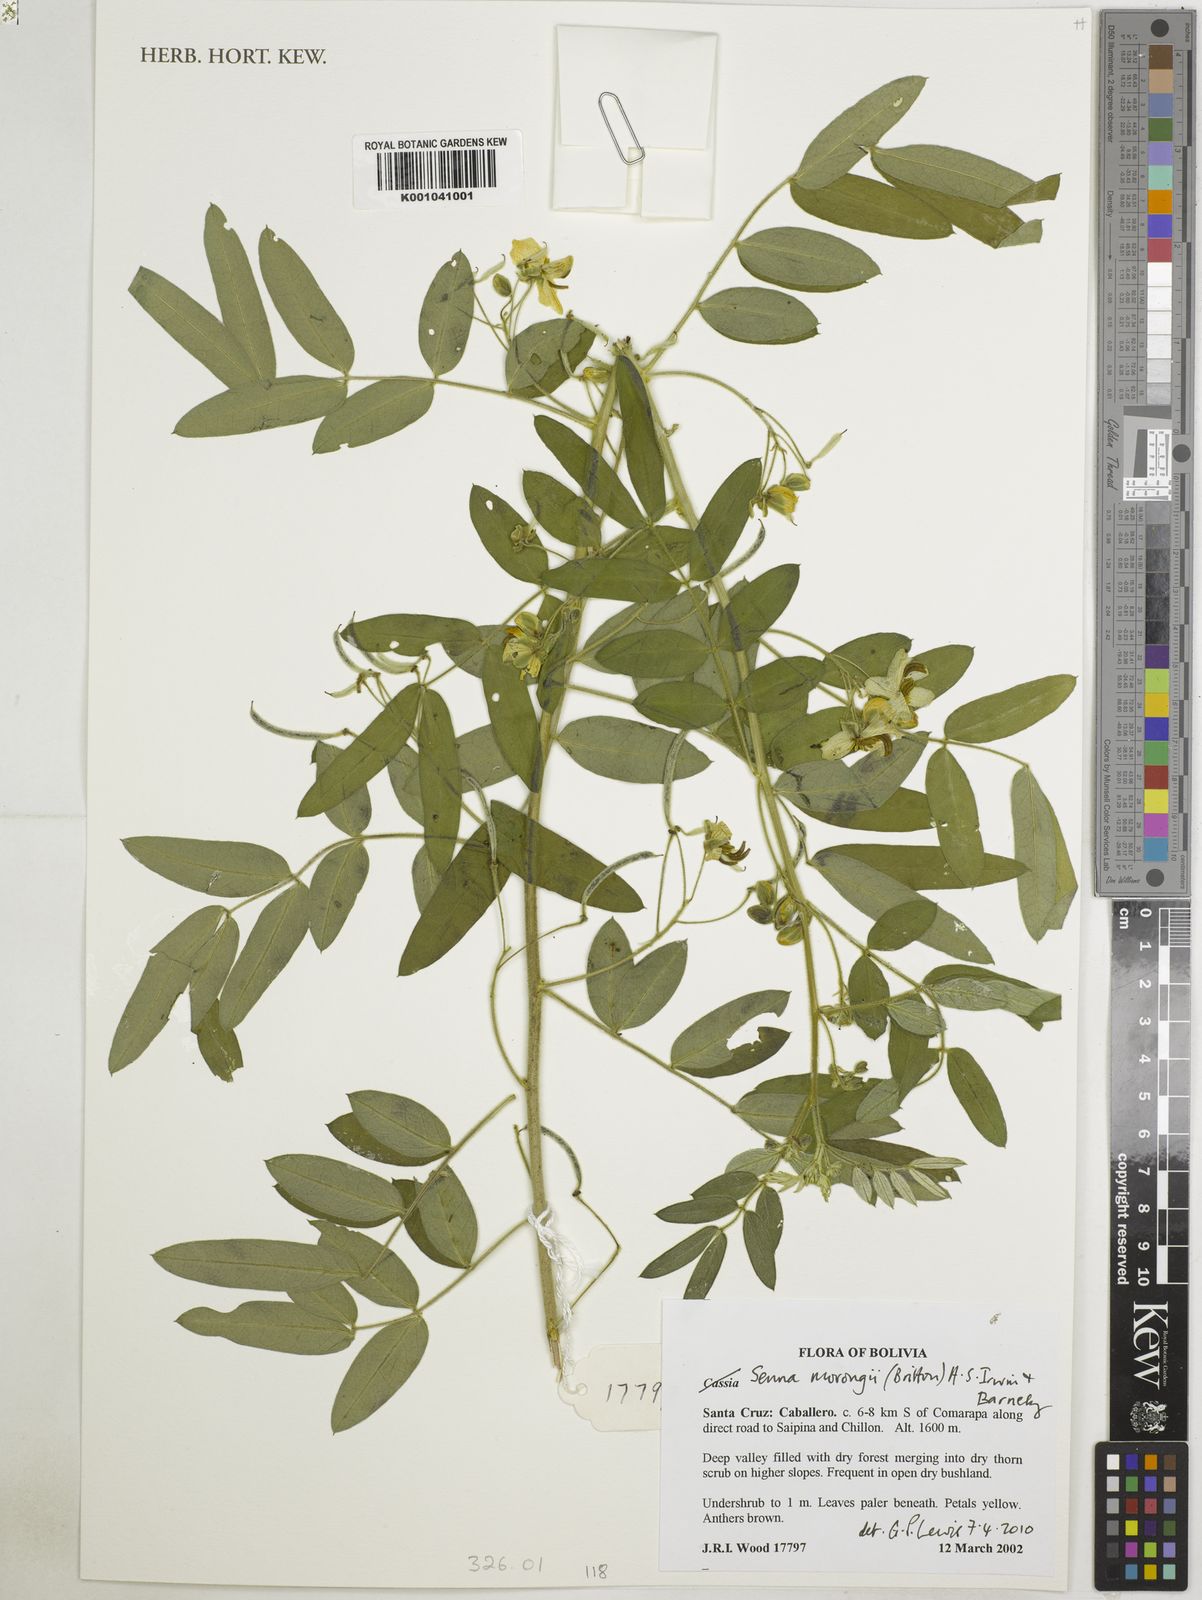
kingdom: Plantae
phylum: Tracheophyta
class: Magnoliopsida
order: Fabales
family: Fabaceae
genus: Senna
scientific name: Senna morongii
